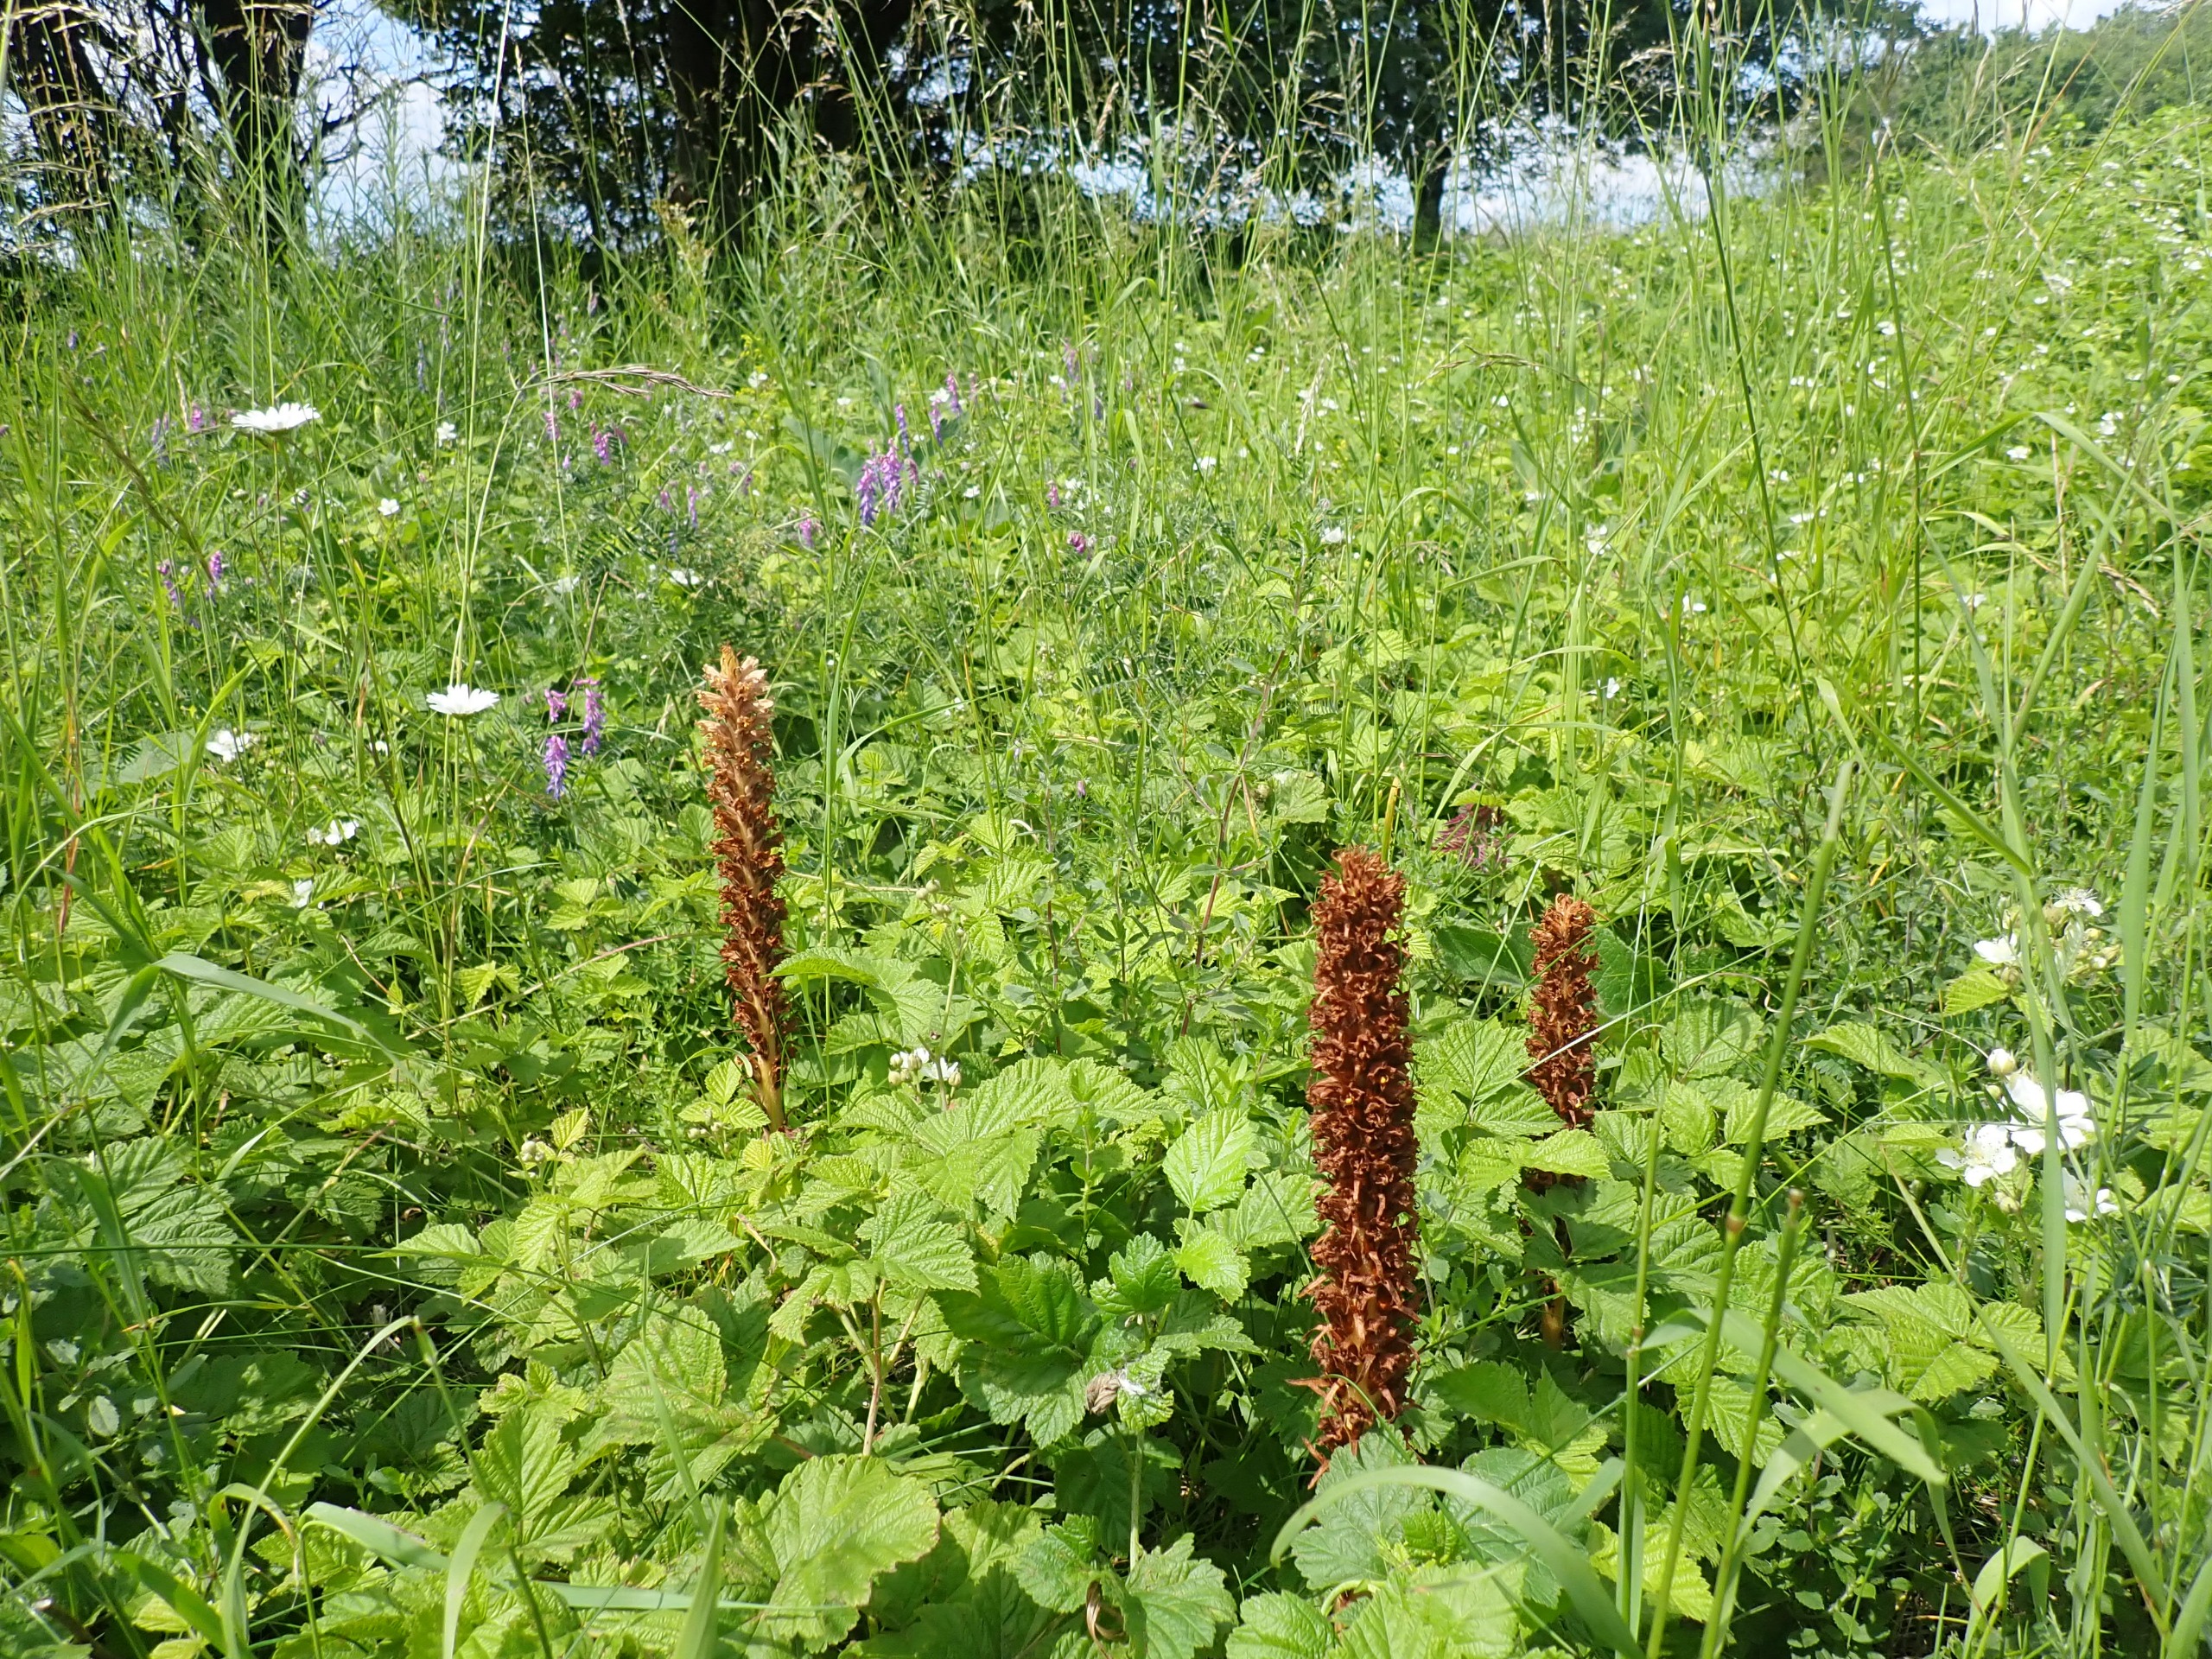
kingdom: Plantae
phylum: Tracheophyta
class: Magnoliopsida
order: Lamiales
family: Orobanchaceae
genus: Orobanche
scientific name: Orobanche elatior
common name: Stor gyvelkvæler
